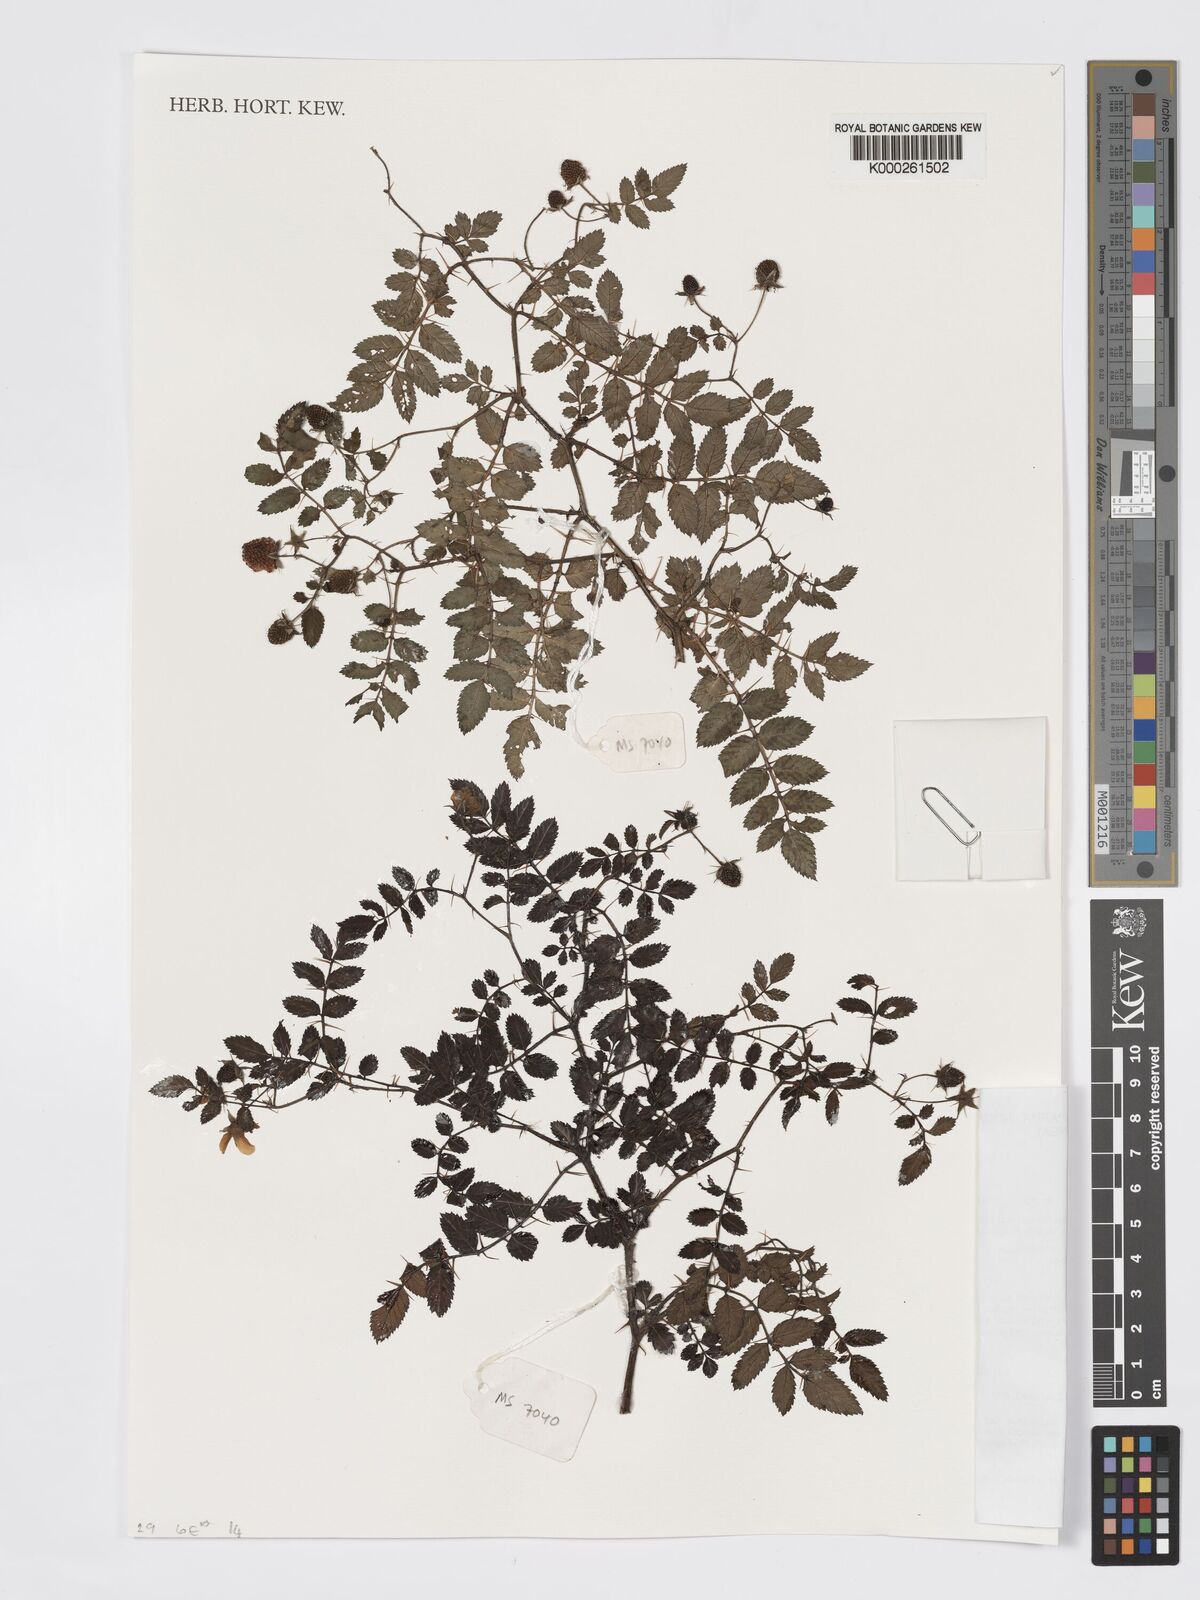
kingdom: Plantae
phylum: Tracheophyta
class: Magnoliopsida
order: Rosales
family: Rosaceae
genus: Rubus
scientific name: Rubus ferdinandimuelleri
